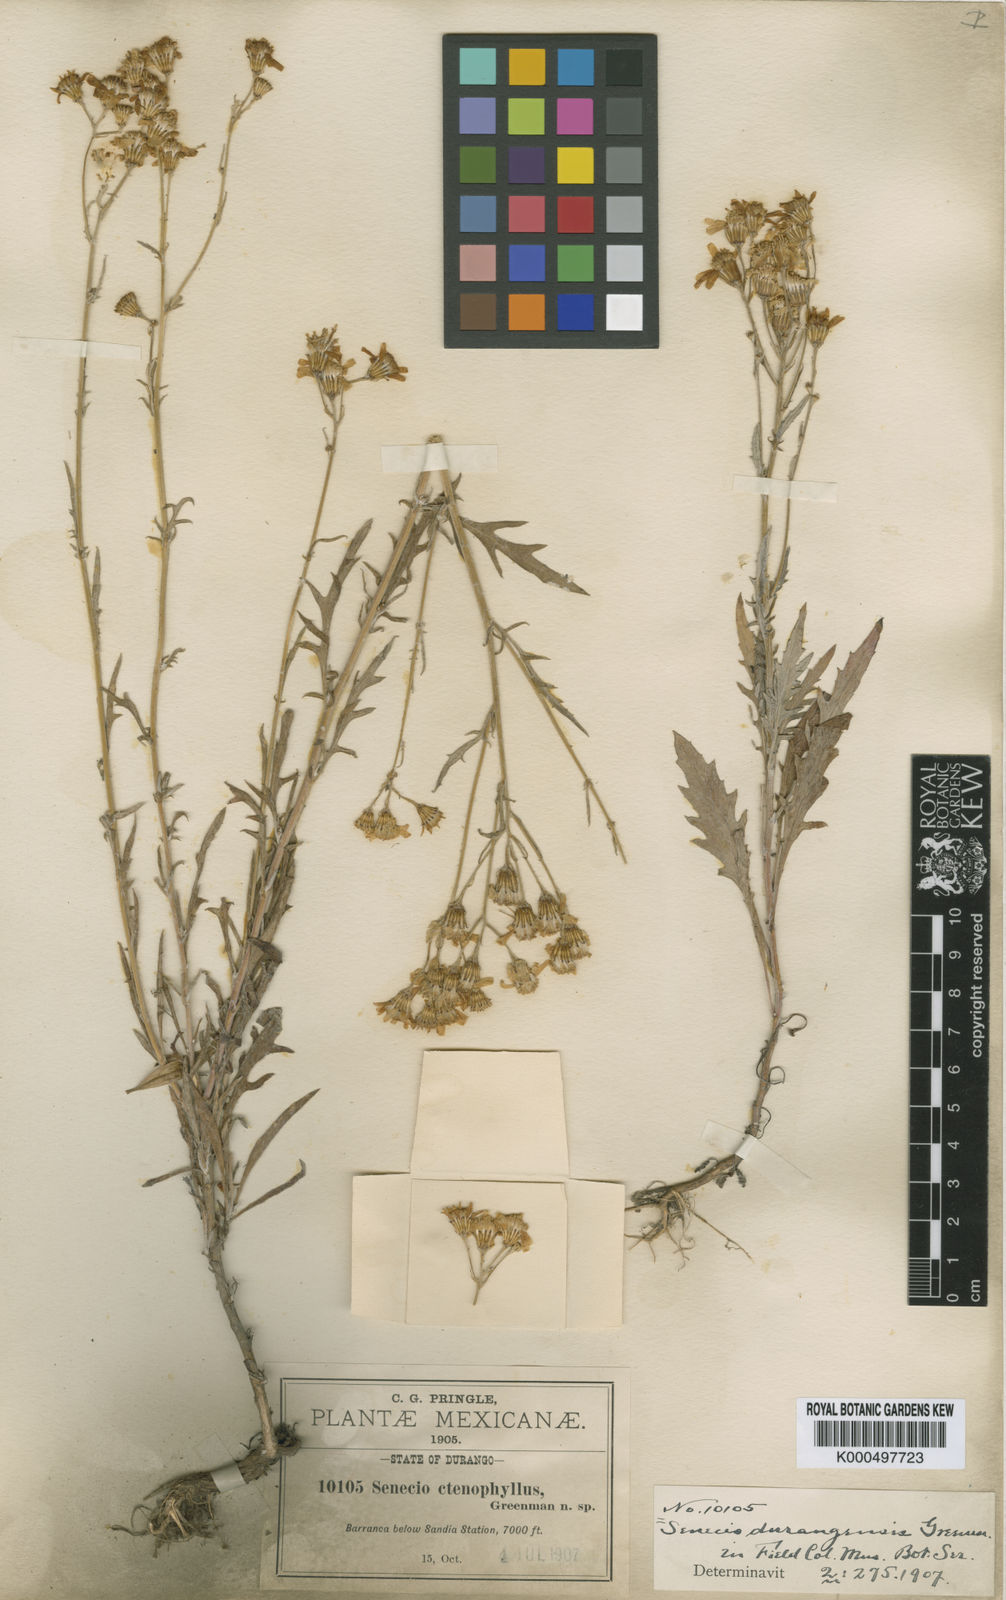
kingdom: Plantae
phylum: Tracheophyta
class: Magnoliopsida
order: Asterales
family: Asteraceae
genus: Senecio
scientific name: Senecio flaccidus
